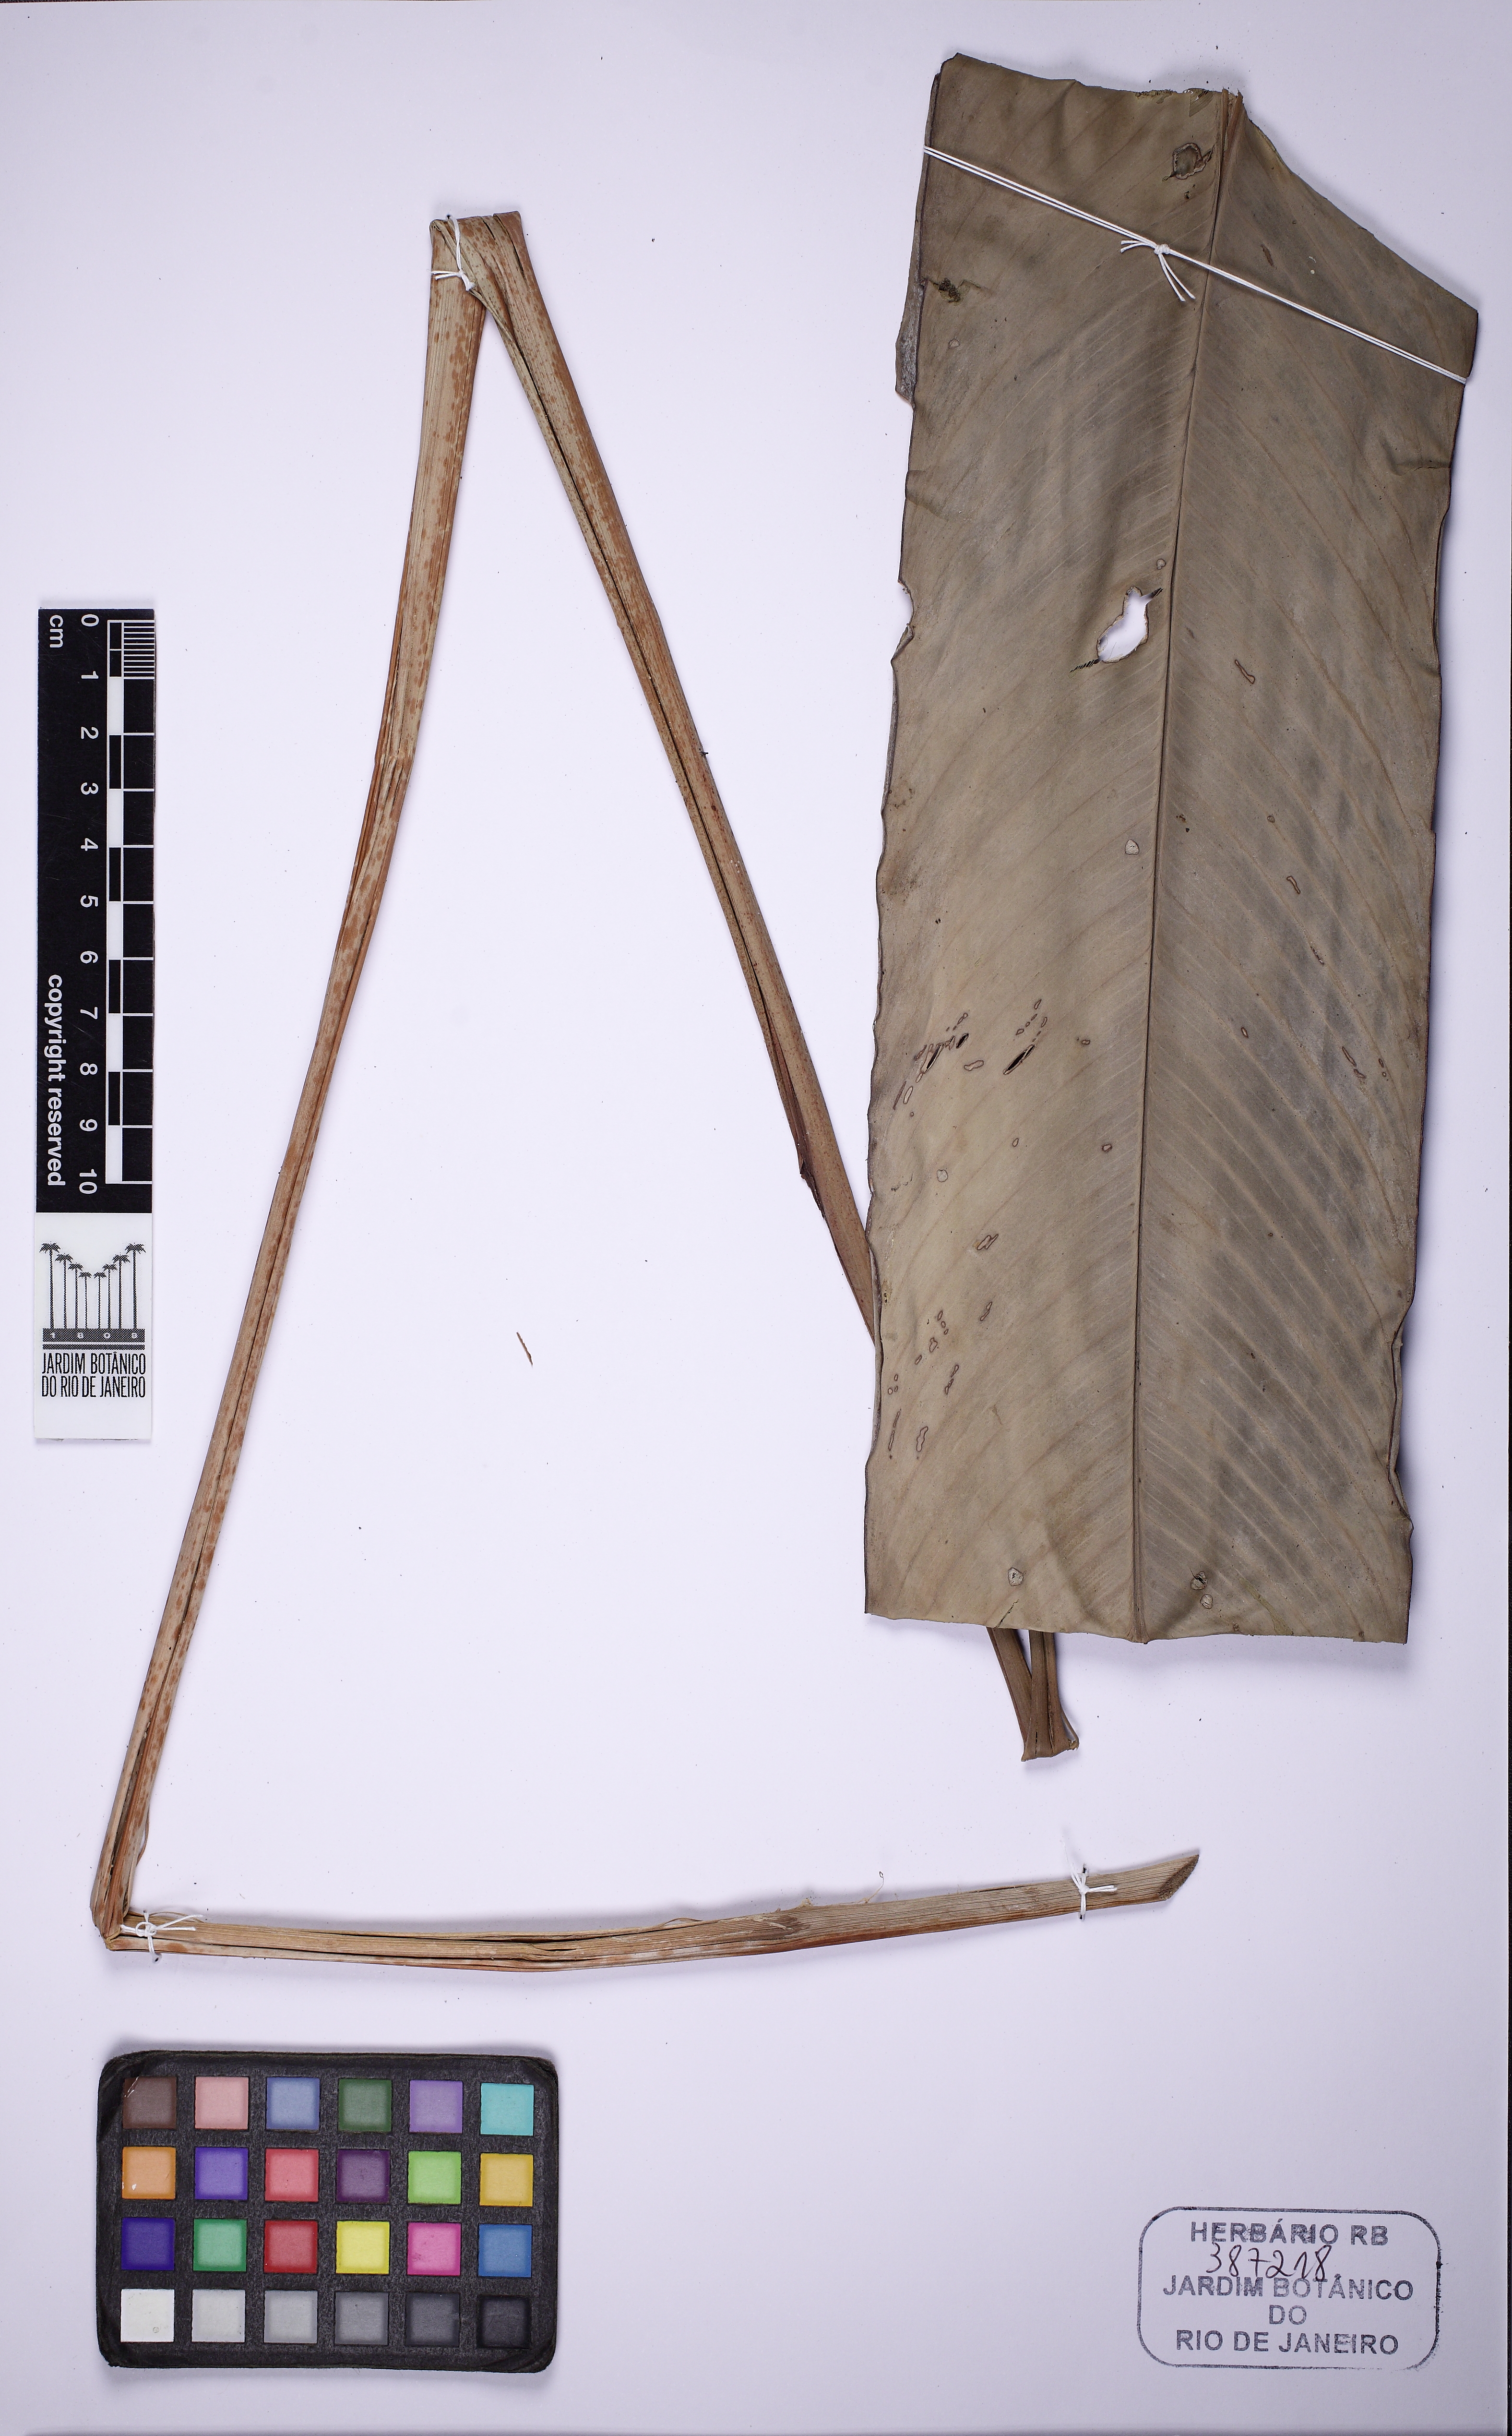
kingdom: Plantae
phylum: Tracheophyta
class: Liliopsida
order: Zingiberales
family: Heliconiaceae
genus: Heliconia
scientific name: Heliconia acuminata
